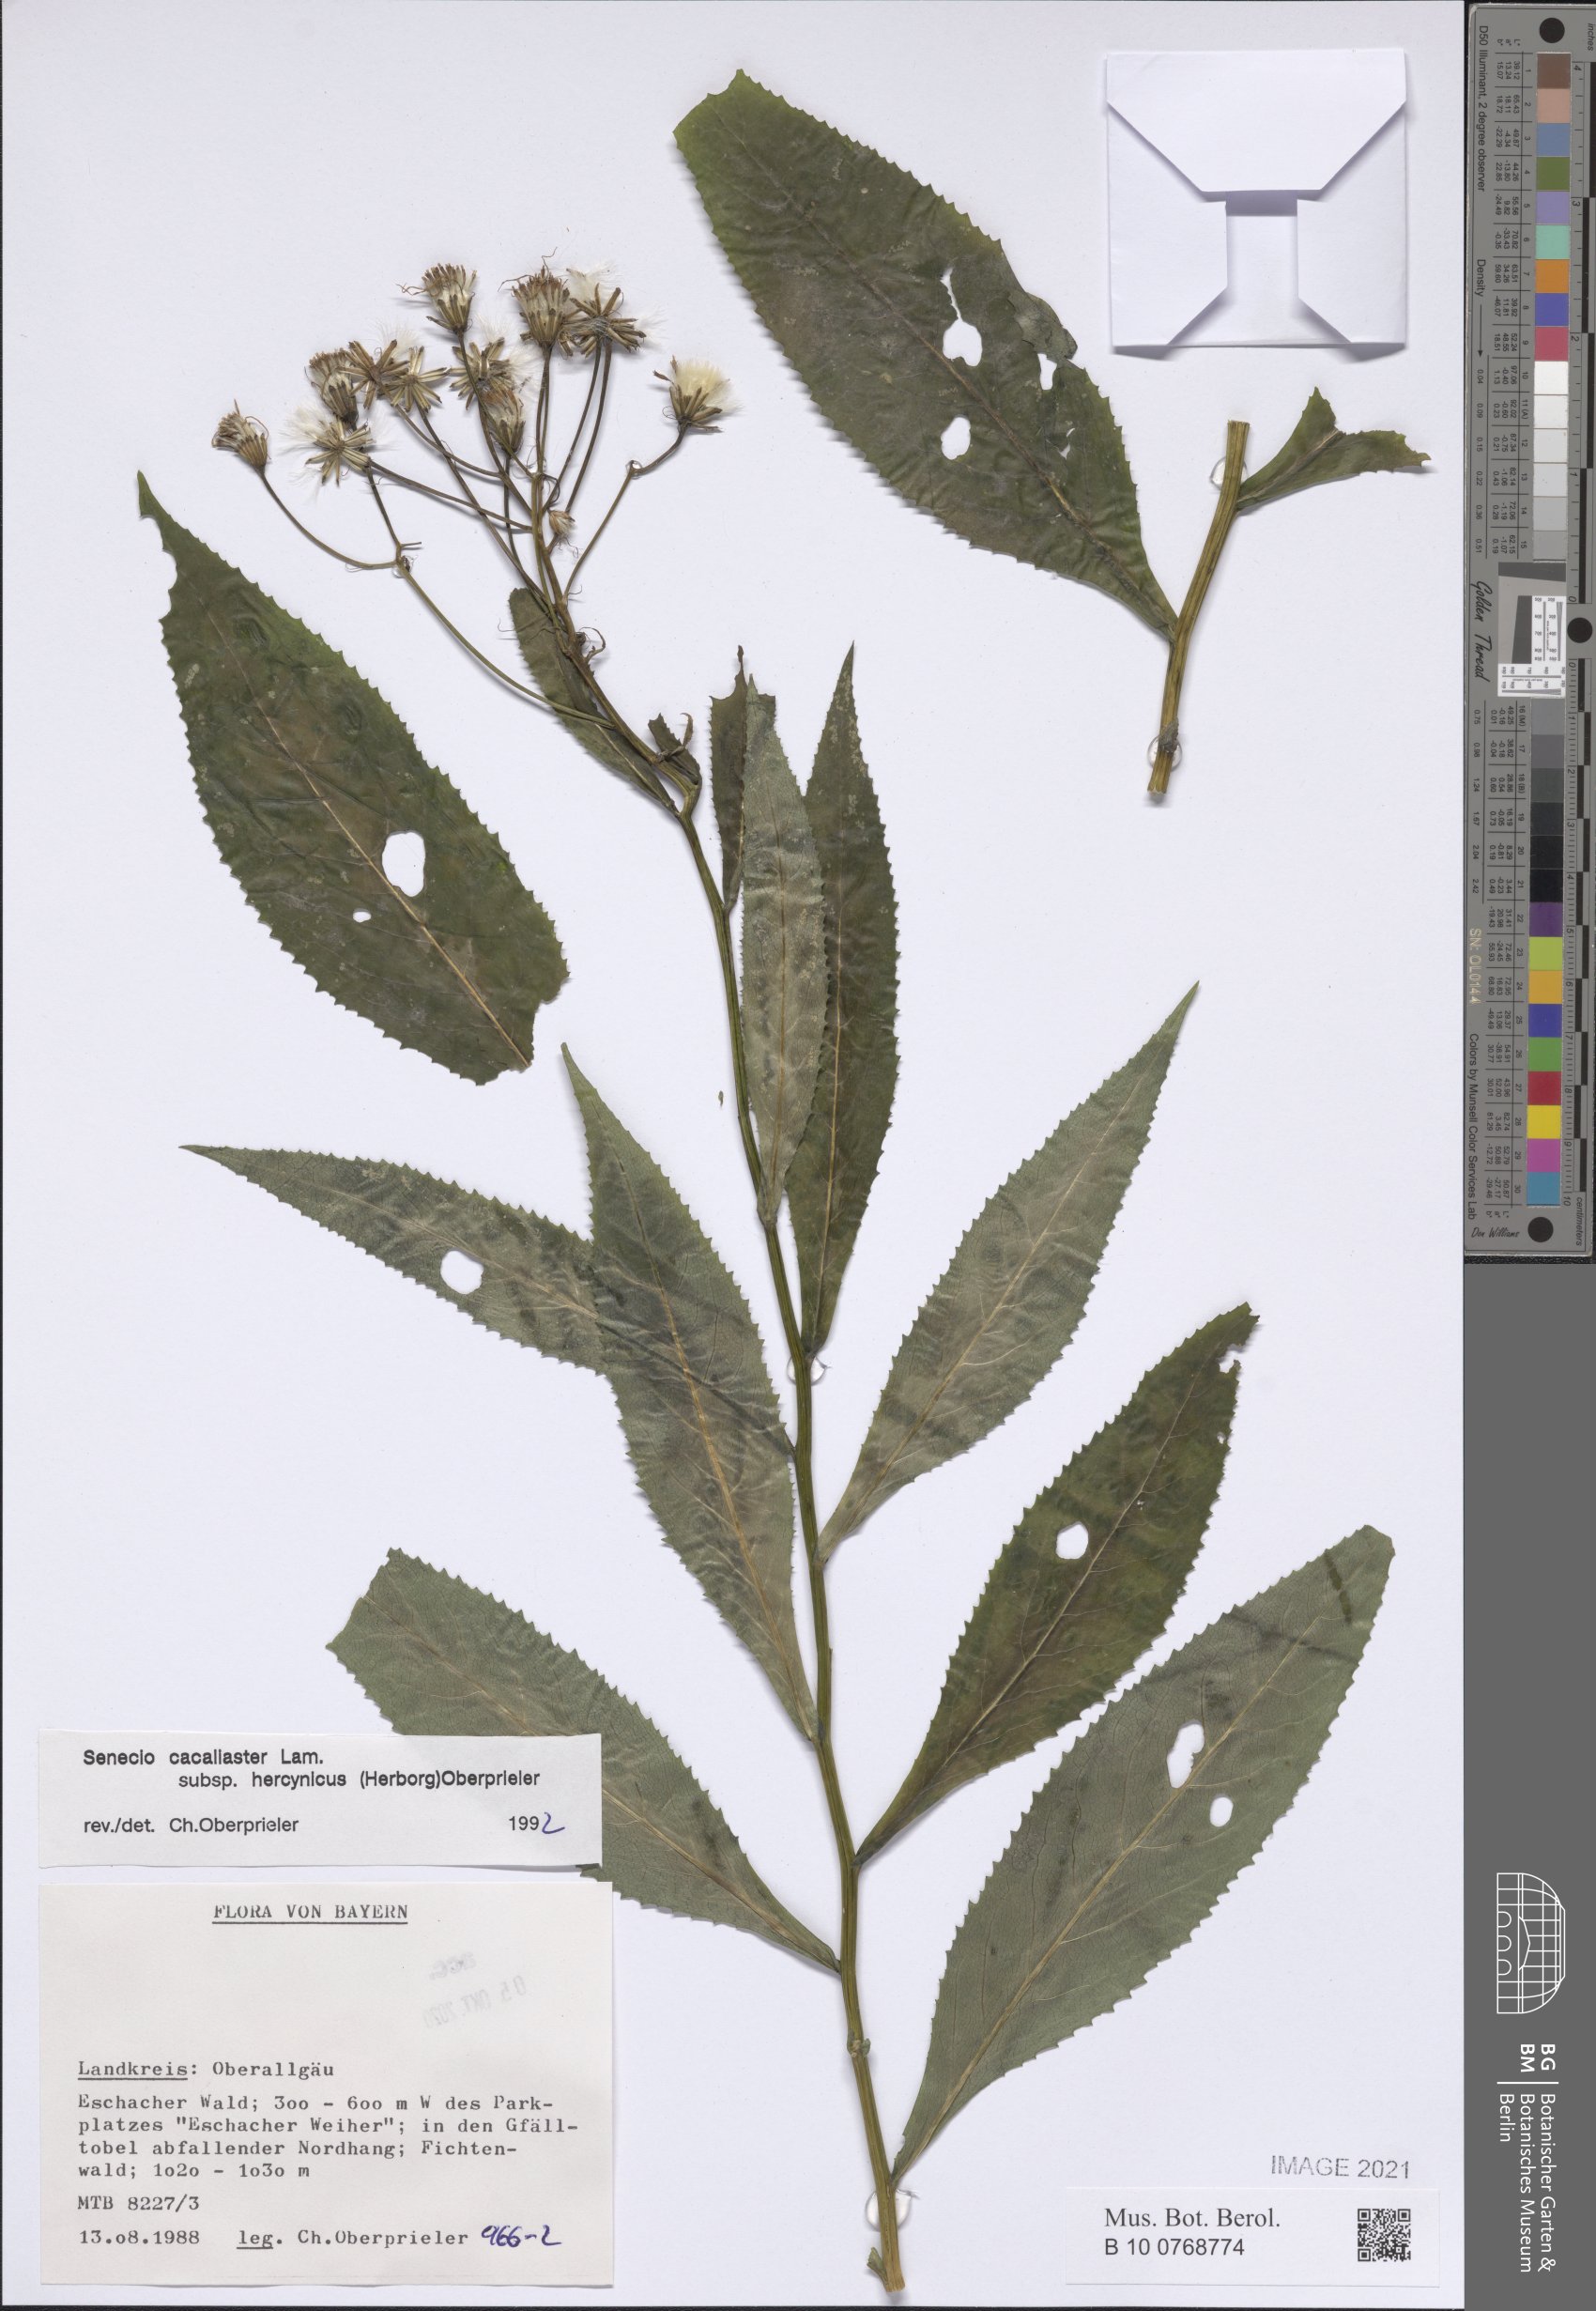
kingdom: Plantae
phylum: Tracheophyta
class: Magnoliopsida
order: Asterales
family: Asteraceae
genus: Senecio
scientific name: Senecio hercynicus
